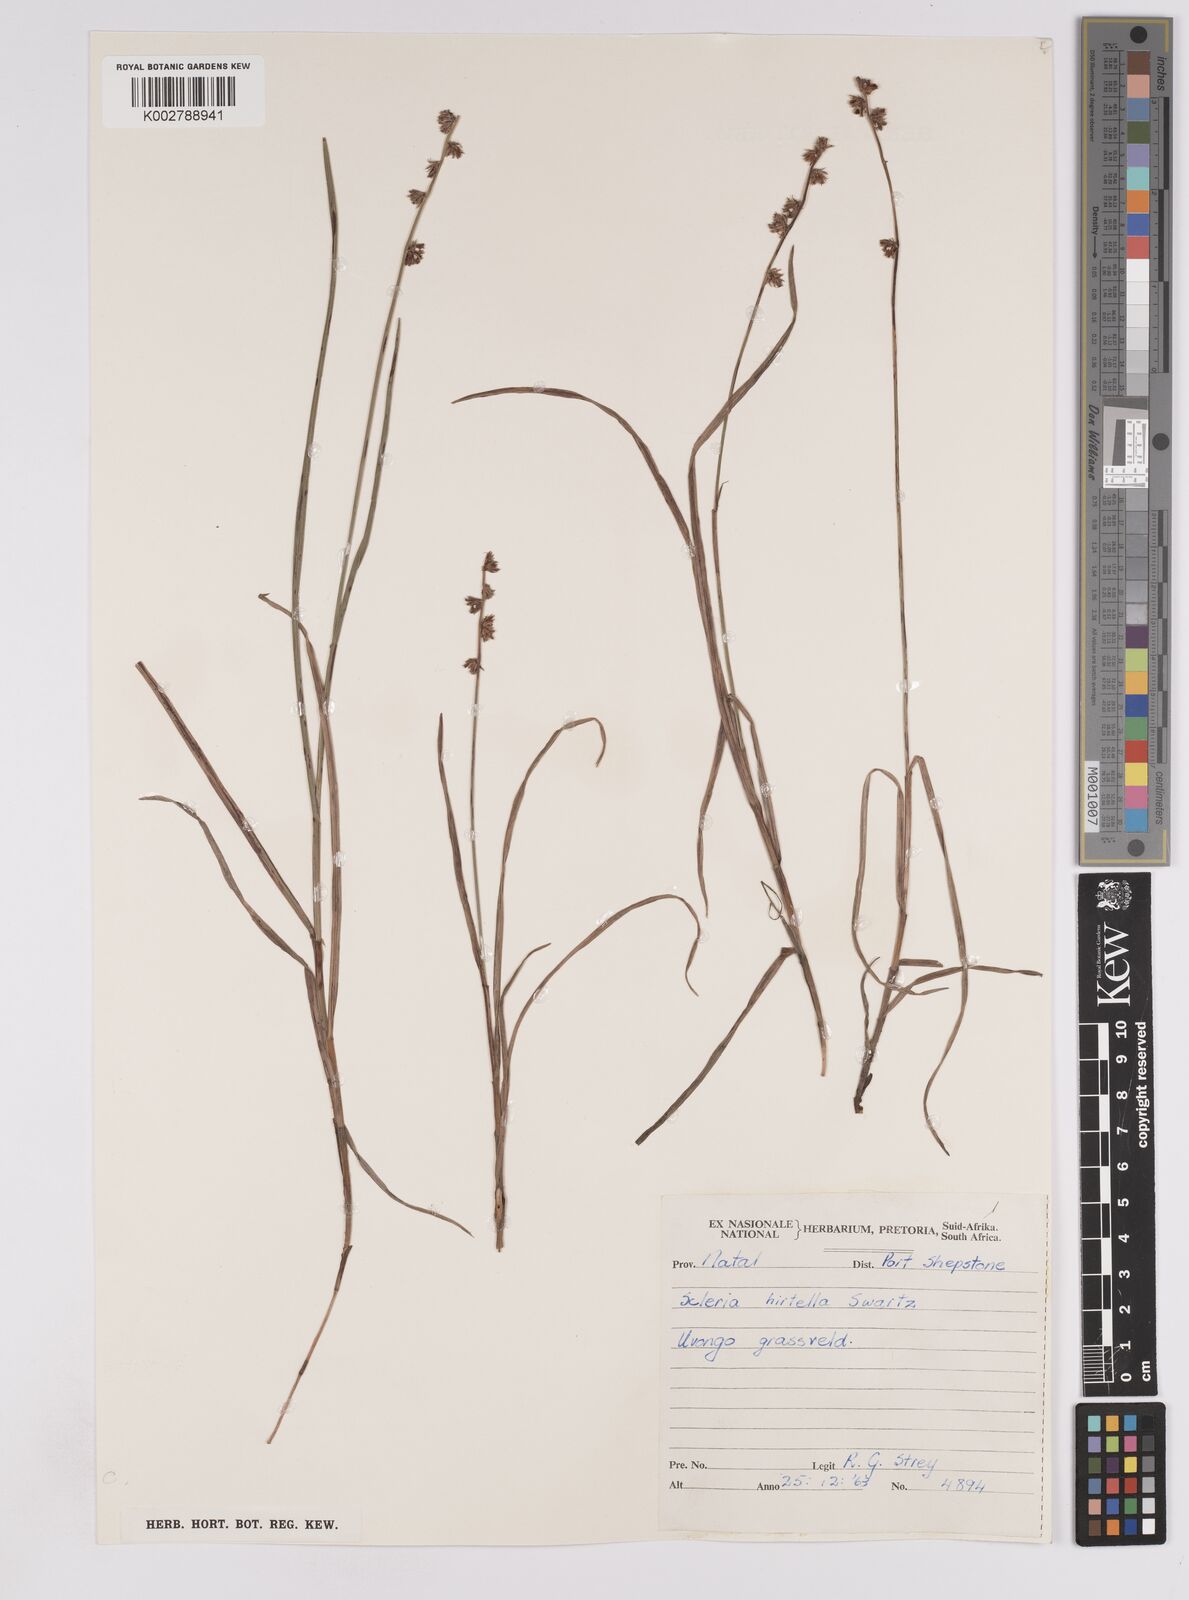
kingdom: Plantae
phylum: Tracheophyta
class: Liliopsida
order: Poales
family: Cyperaceae
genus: Scleria
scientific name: Scleria hirtella
